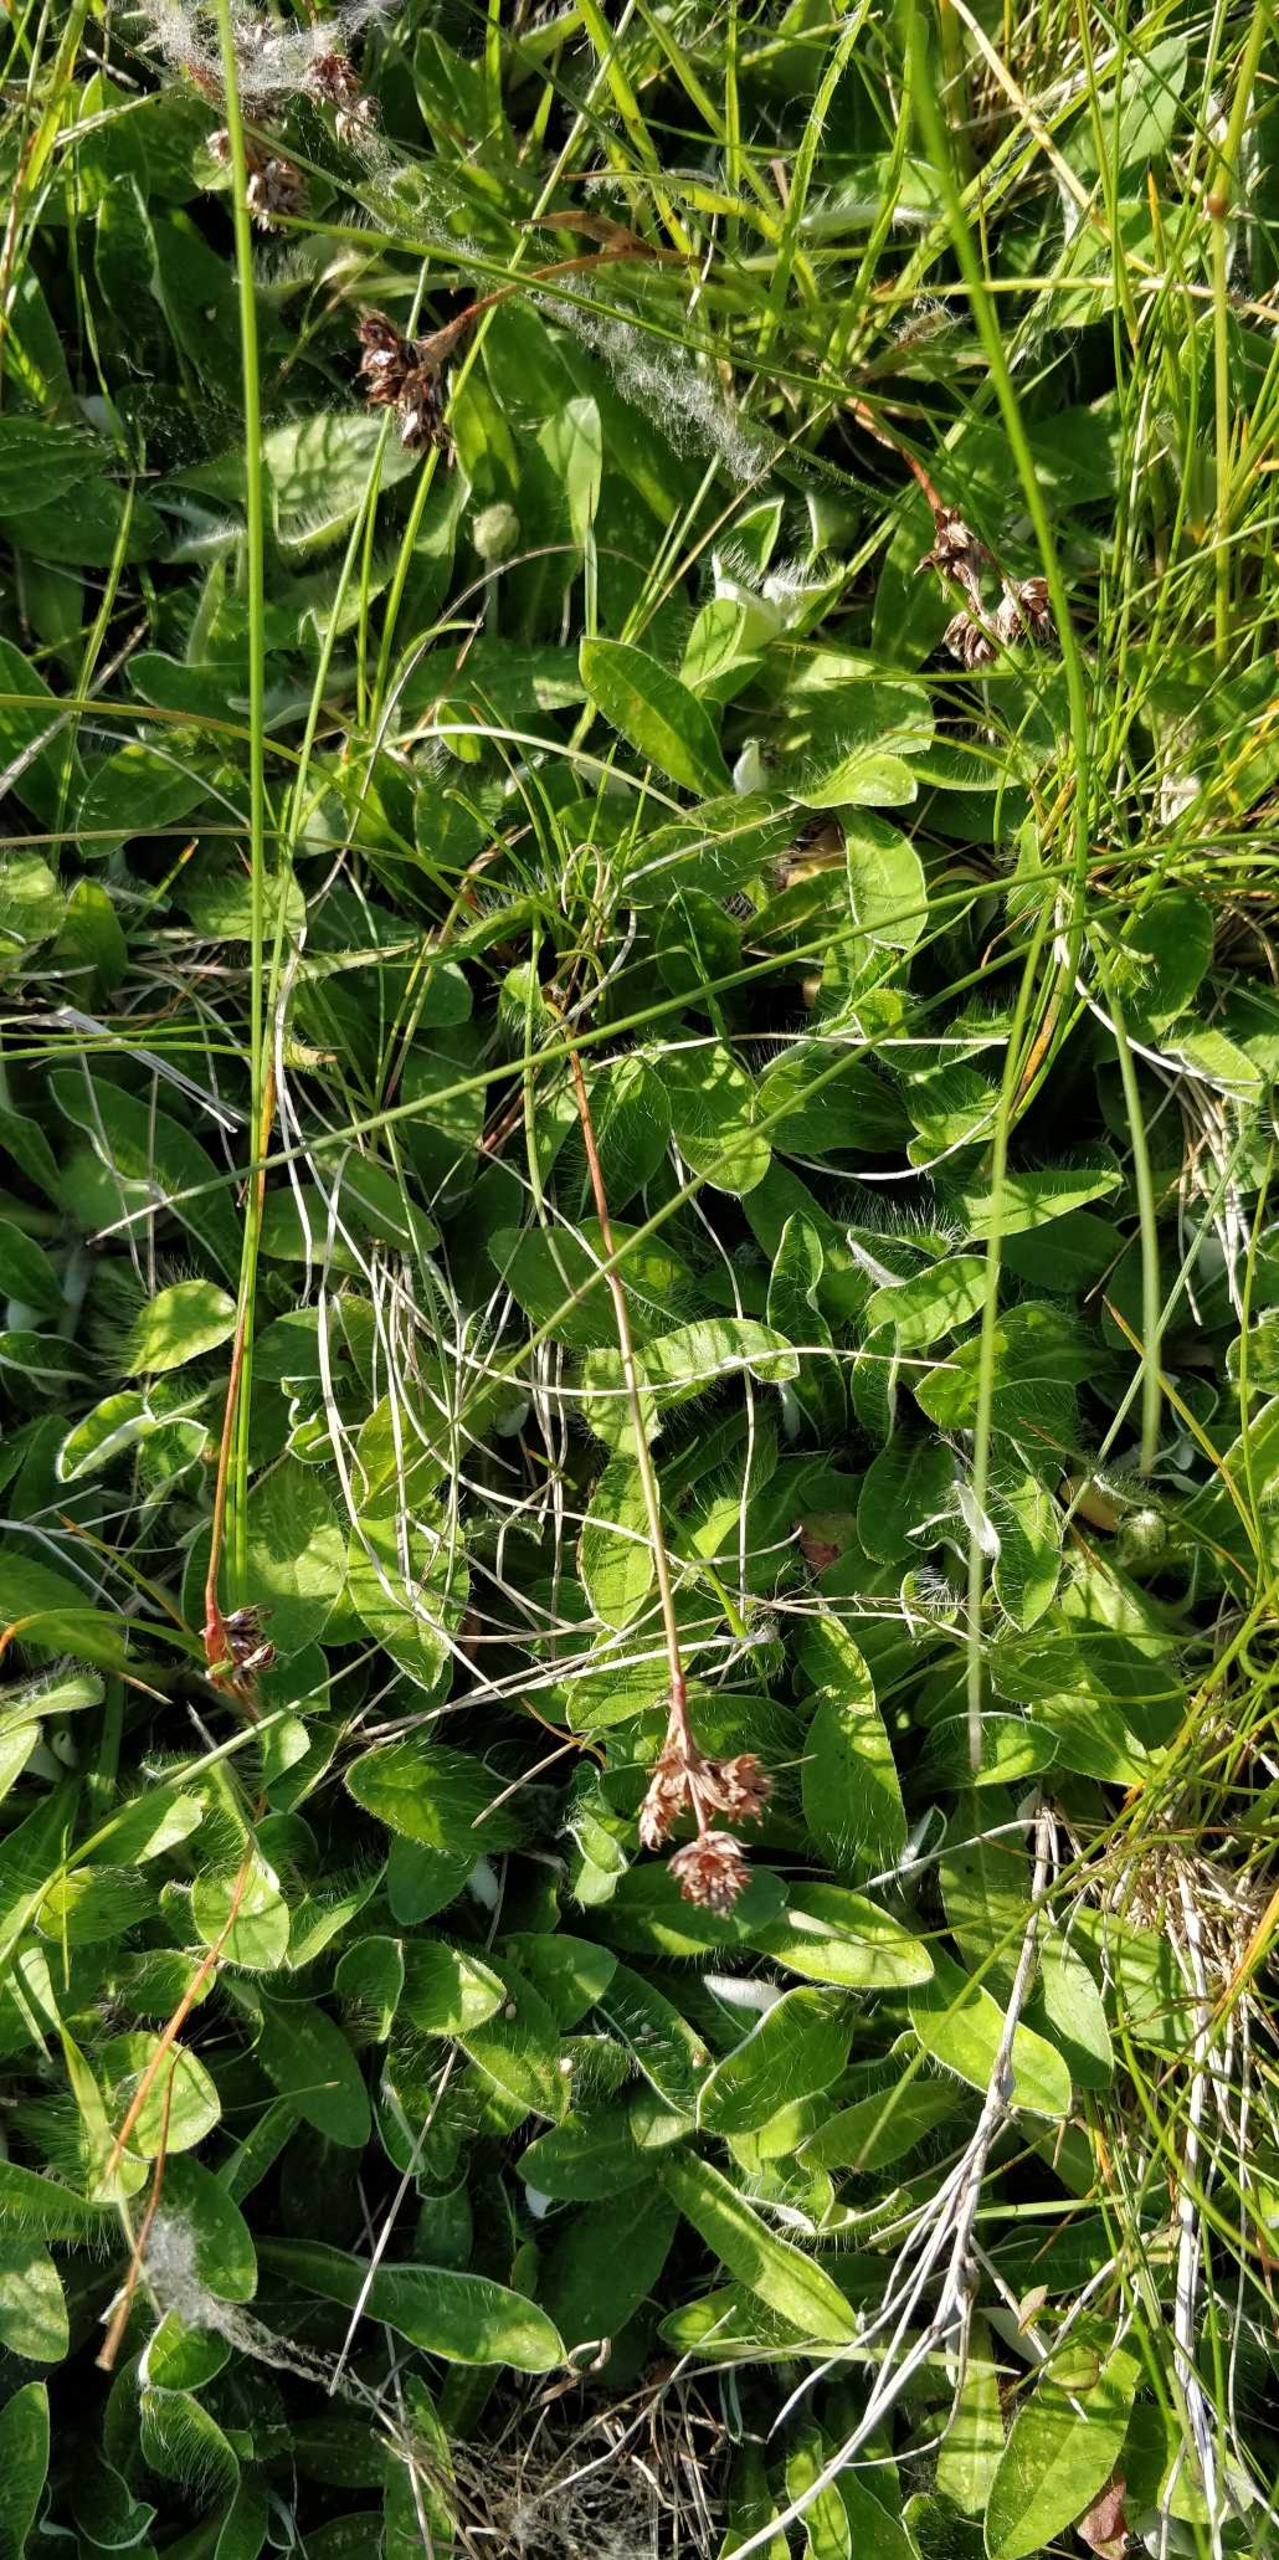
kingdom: Plantae
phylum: Tracheophyta
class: Magnoliopsida
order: Asterales
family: Asteraceae
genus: Pilosella
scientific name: Pilosella officinarum
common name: Håret høgeurt
